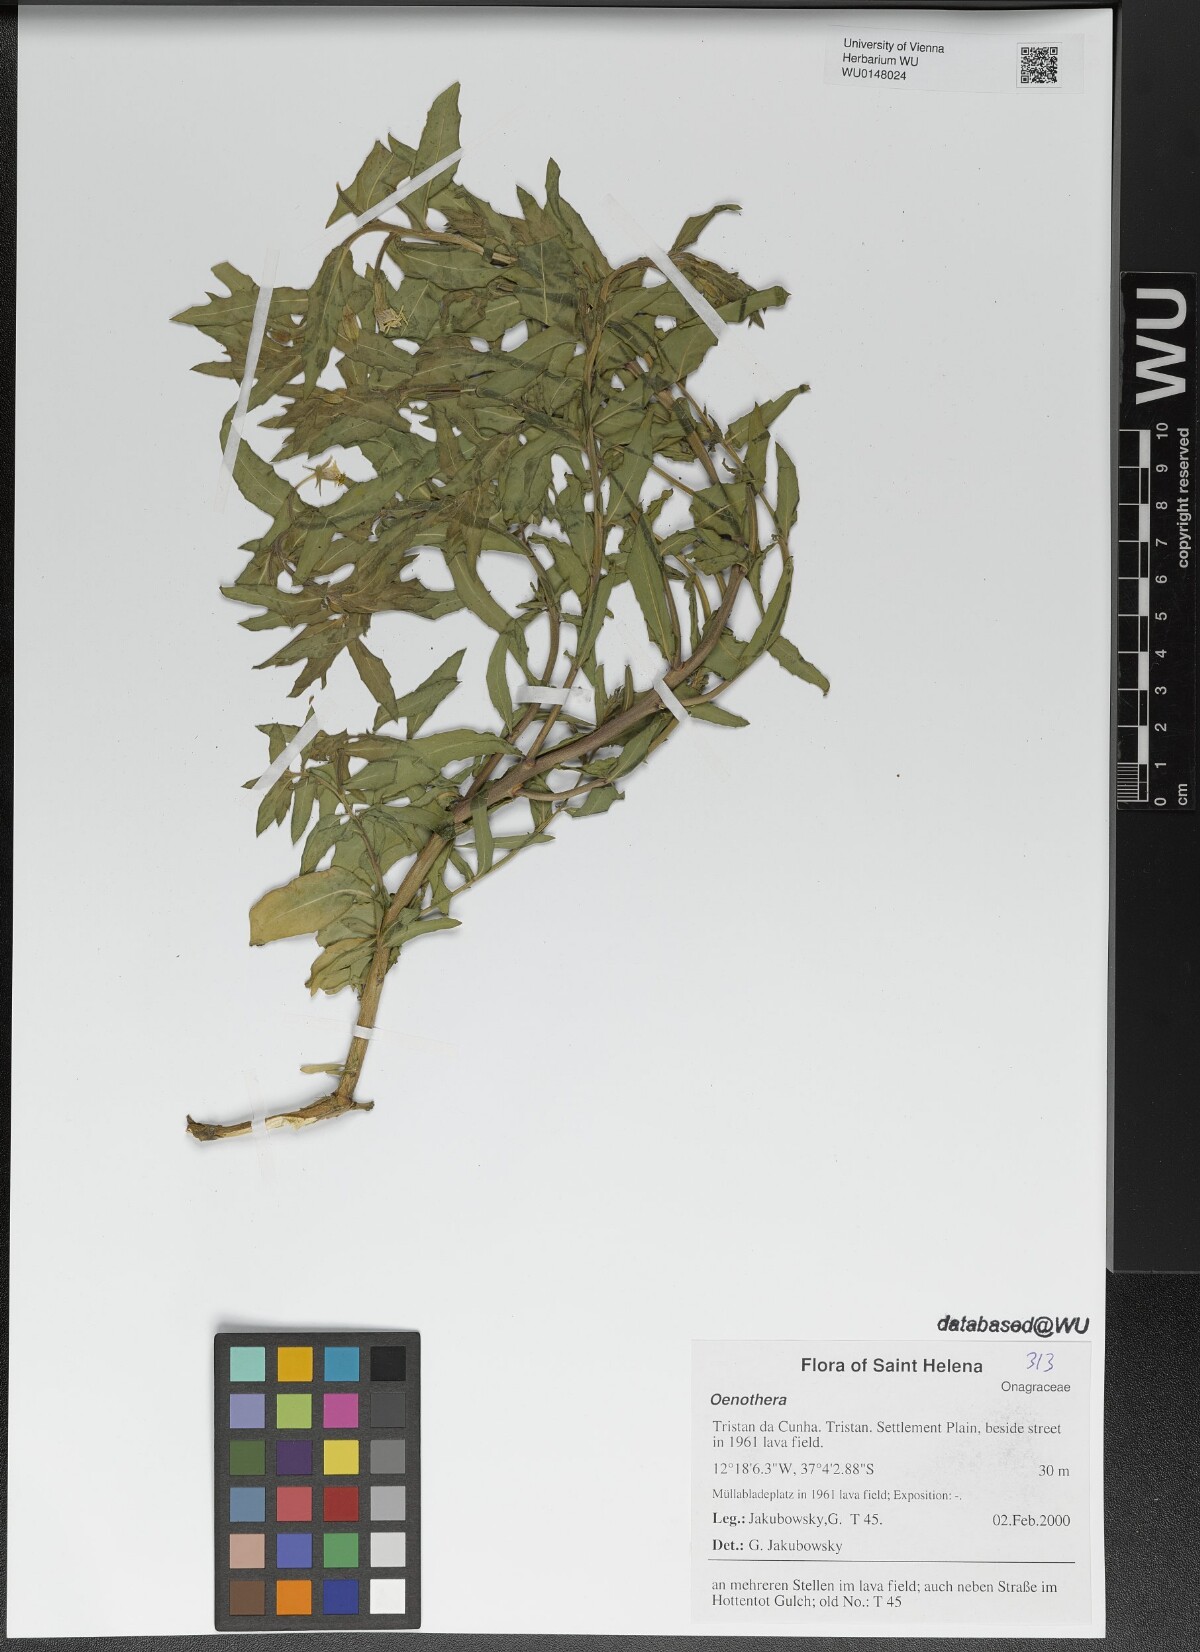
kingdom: Plantae
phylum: Tracheophyta
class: Magnoliopsida
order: Myrtales
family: Onagraceae
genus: Oenothera
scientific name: Oenothera
